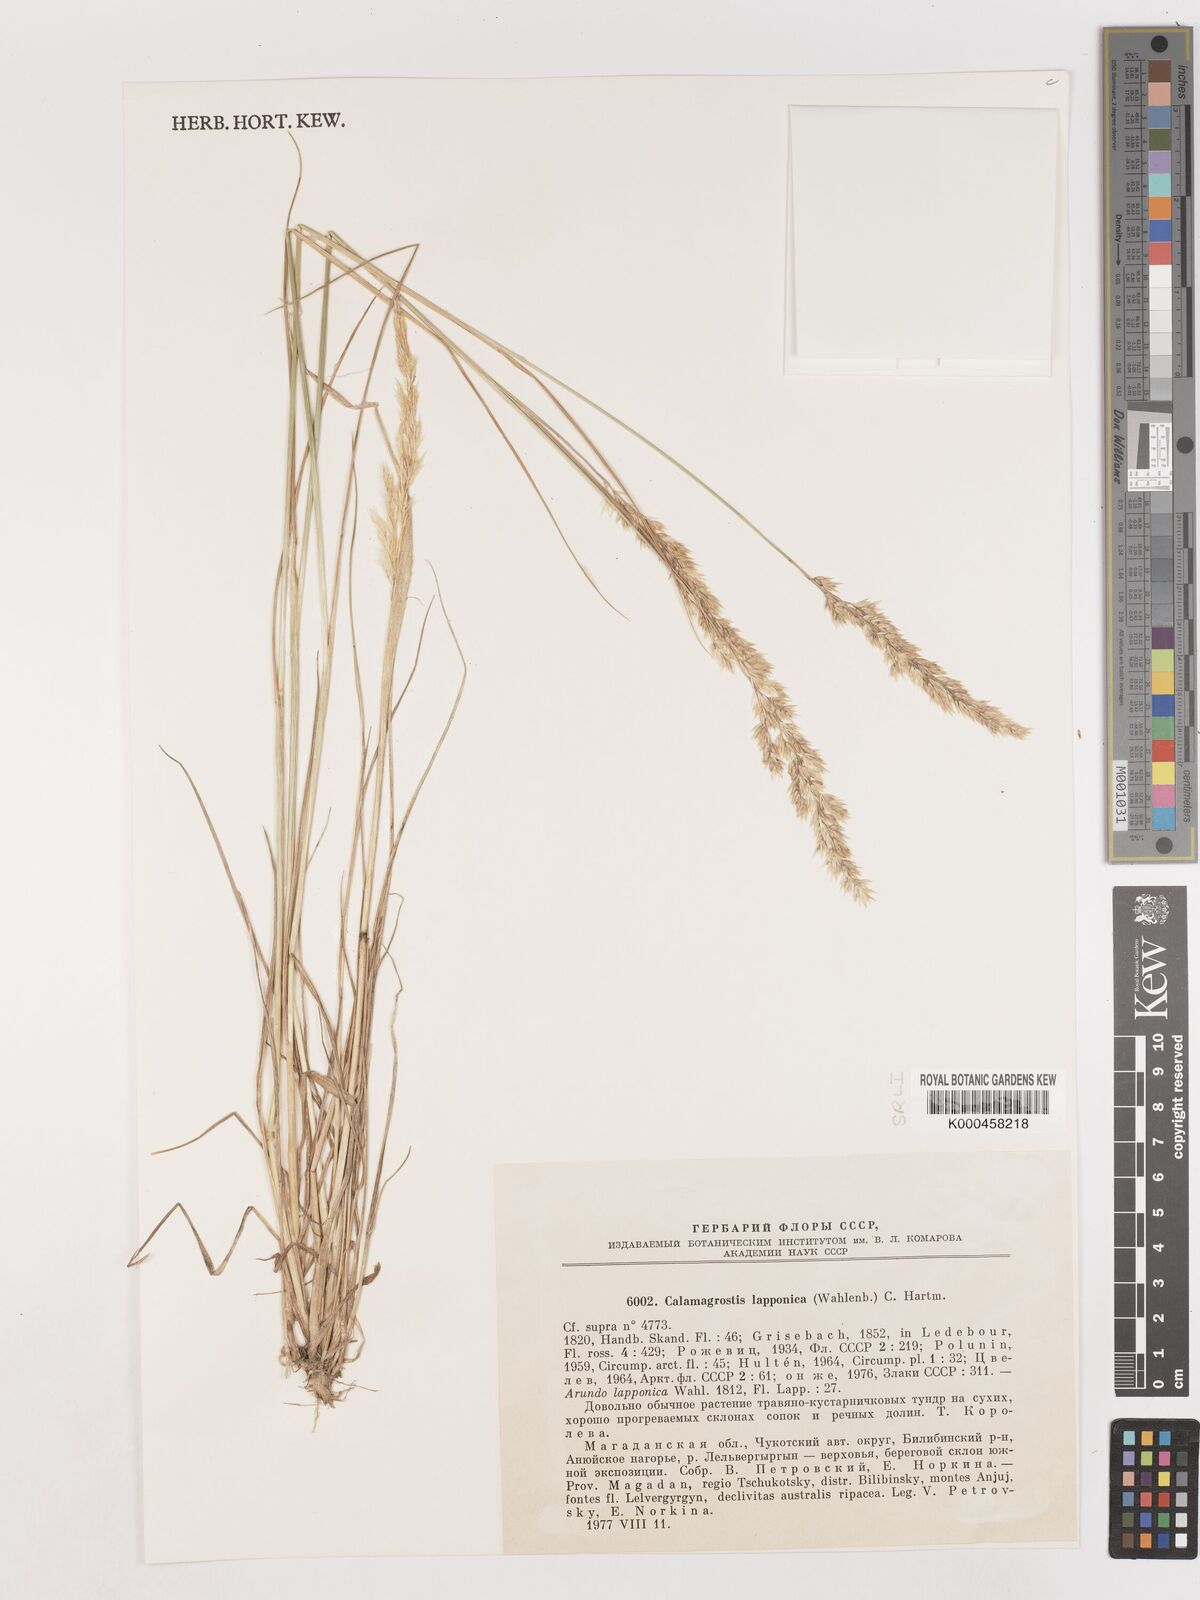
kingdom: Plantae
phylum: Tracheophyta
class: Liliopsida
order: Poales
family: Poaceae
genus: Calamagrostis
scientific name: Calamagrostis
